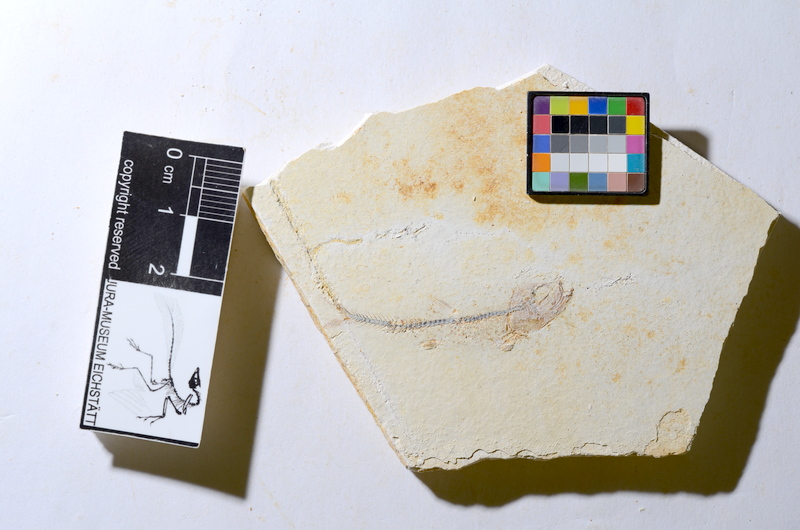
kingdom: Animalia
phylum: Chordata
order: Salmoniformes
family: Orthogonikleithridae
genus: Orthogonikleithrus
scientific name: Orthogonikleithrus hoelli
